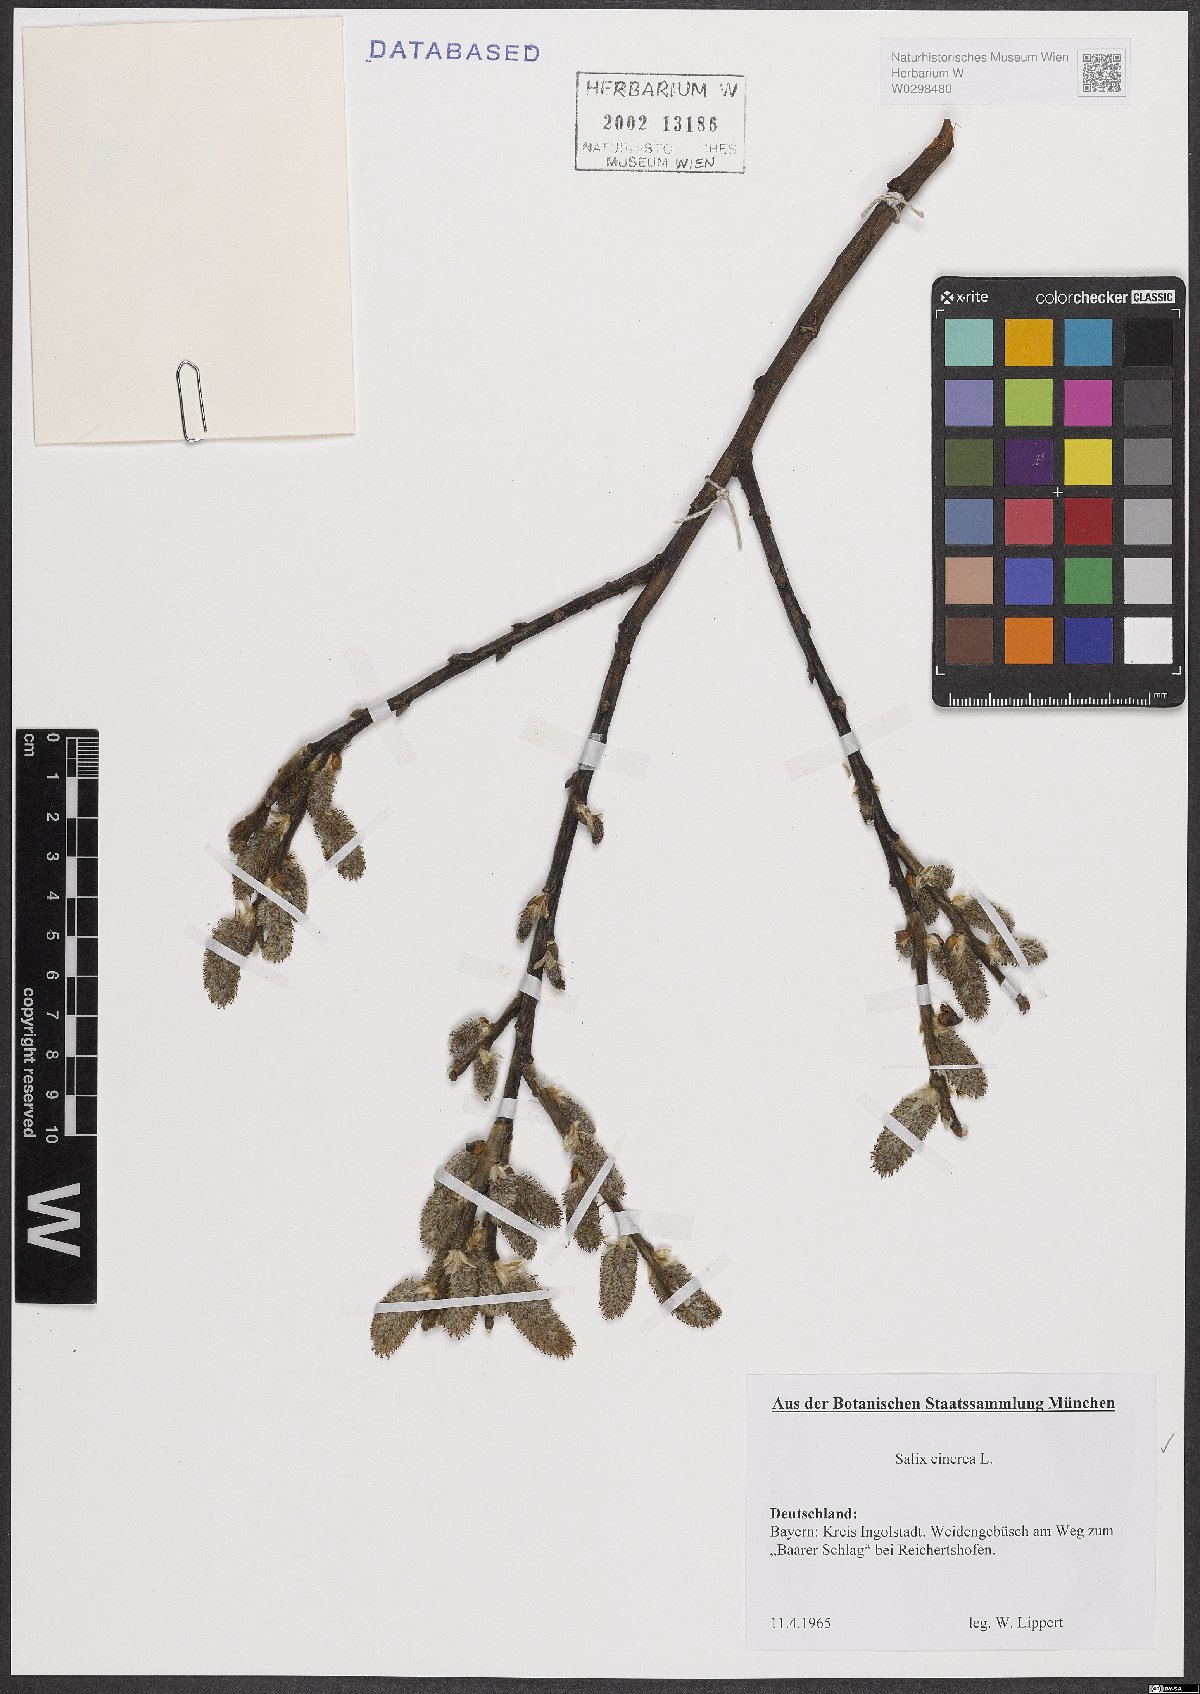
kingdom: Plantae
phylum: Tracheophyta
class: Magnoliopsida
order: Malpighiales
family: Salicaceae
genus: Salix
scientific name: Salix cinerea
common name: Common sallow
